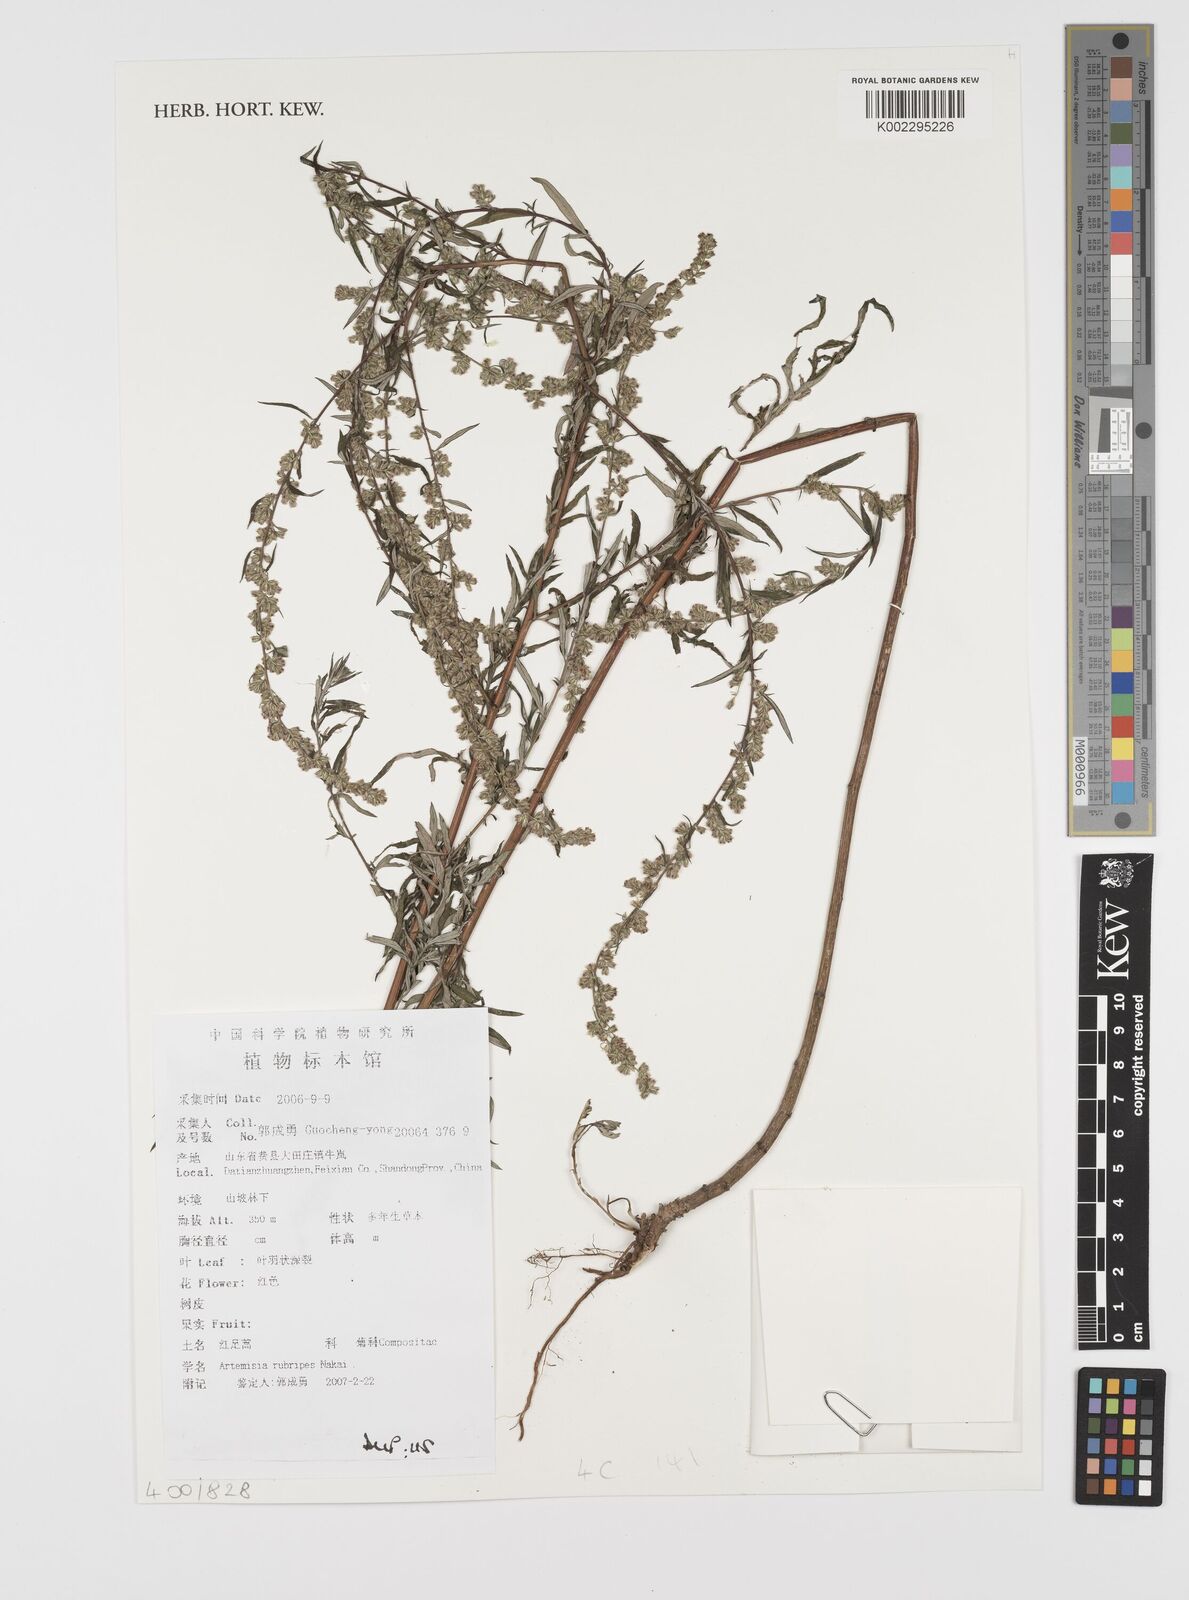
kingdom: Plantae
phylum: Tracheophyta
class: Magnoliopsida
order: Asterales
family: Asteraceae
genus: Artemisia
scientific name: Artemisia rubripes
